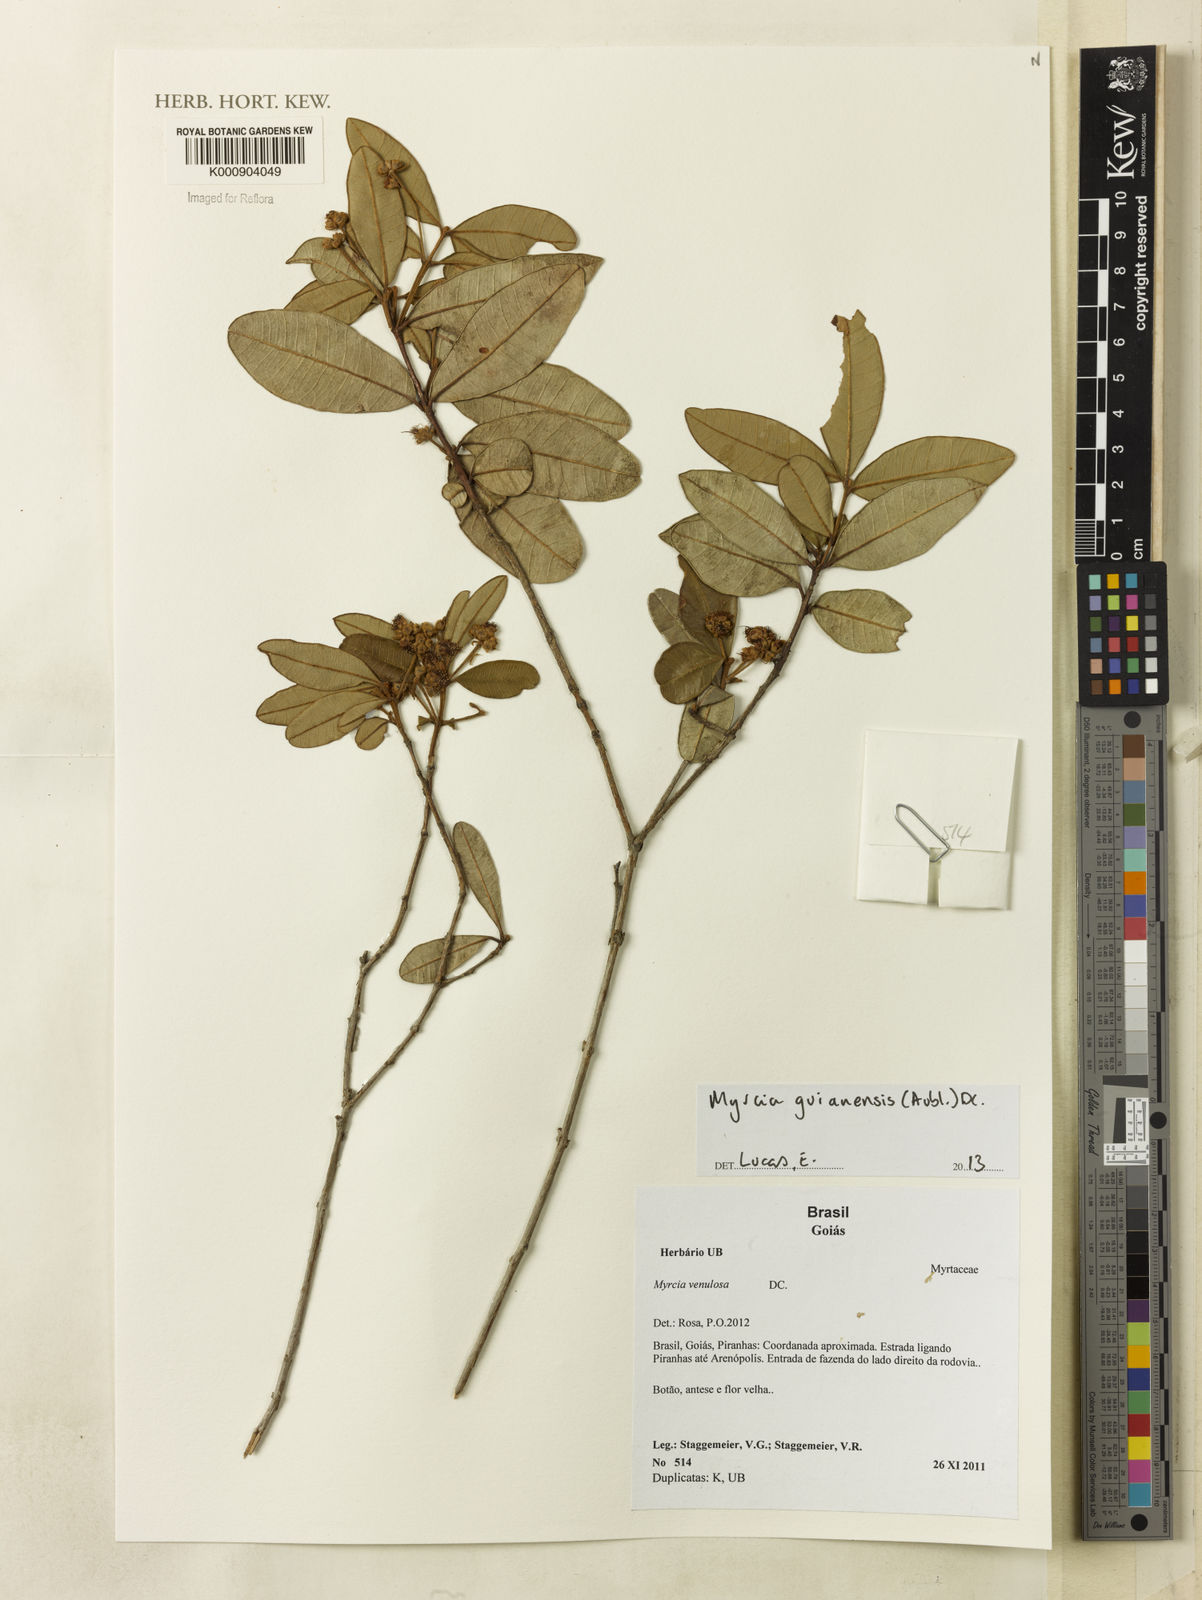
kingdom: Plantae
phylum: Tracheophyta
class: Magnoliopsida
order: Myrtales
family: Myrtaceae
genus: Myrcia
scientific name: Myrcia camapuanensis
